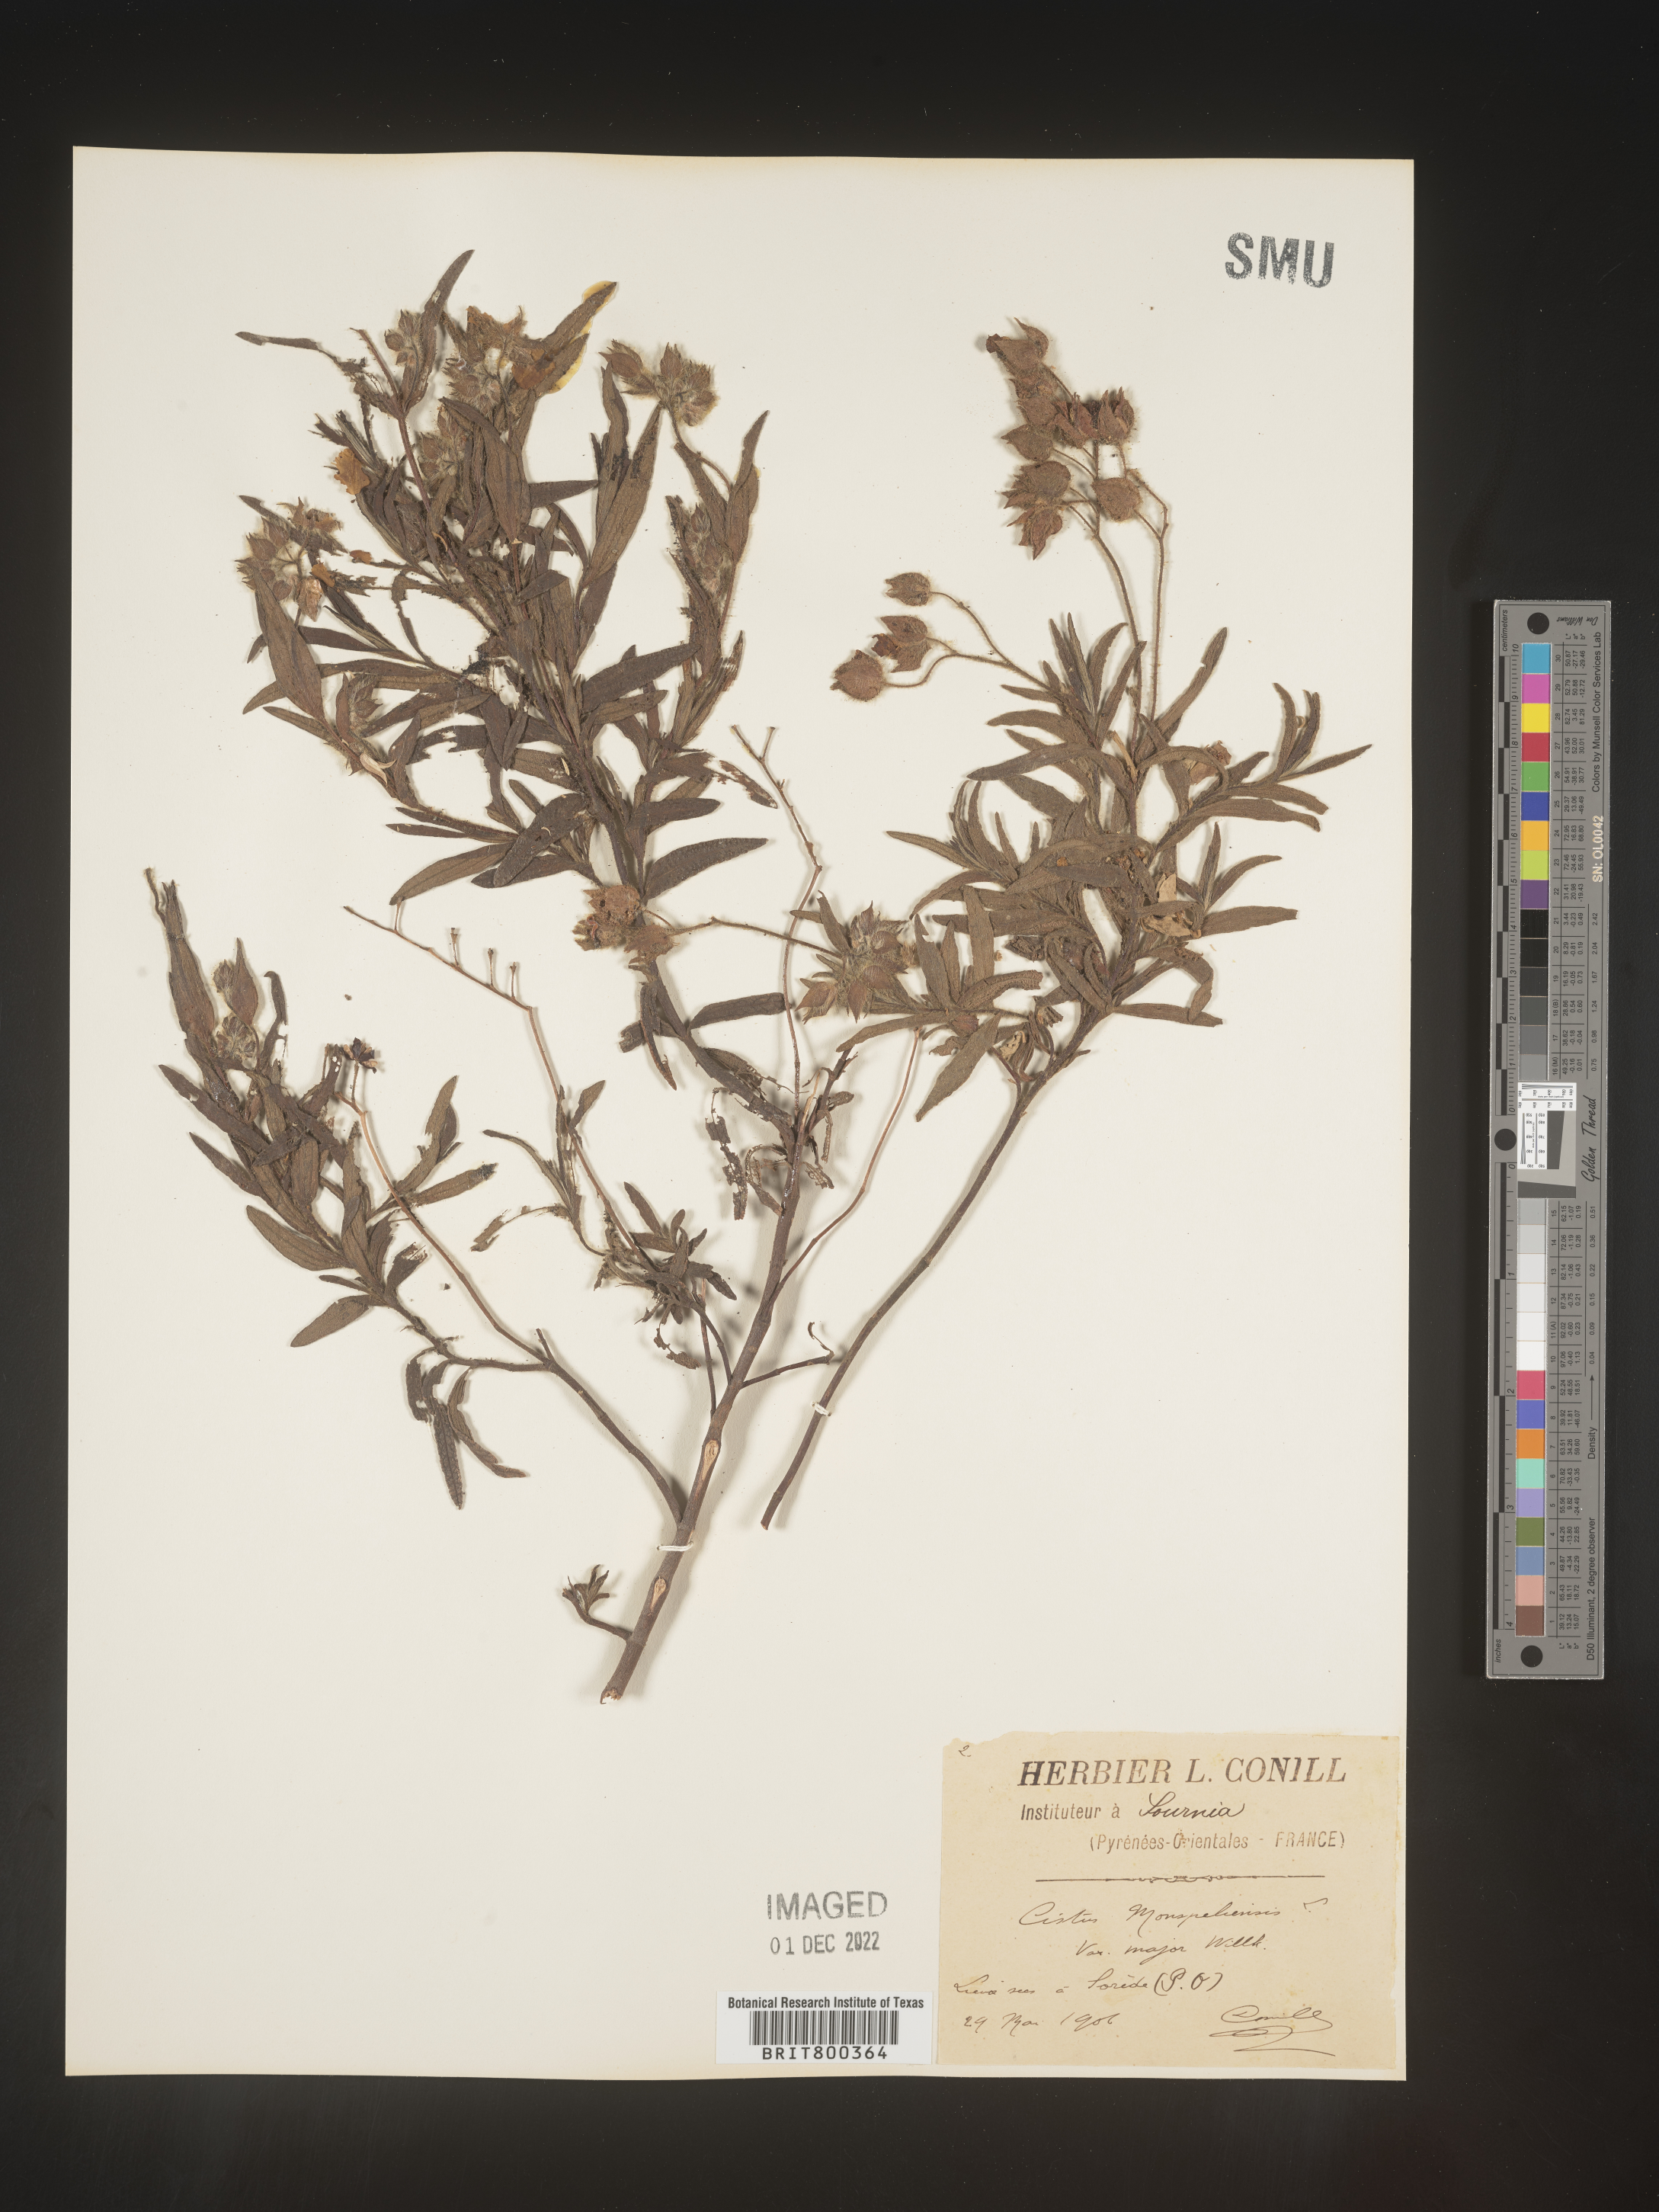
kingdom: Plantae
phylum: Tracheophyta
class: Magnoliopsida
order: Malvales
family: Cistaceae
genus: Cistus
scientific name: Cistus
